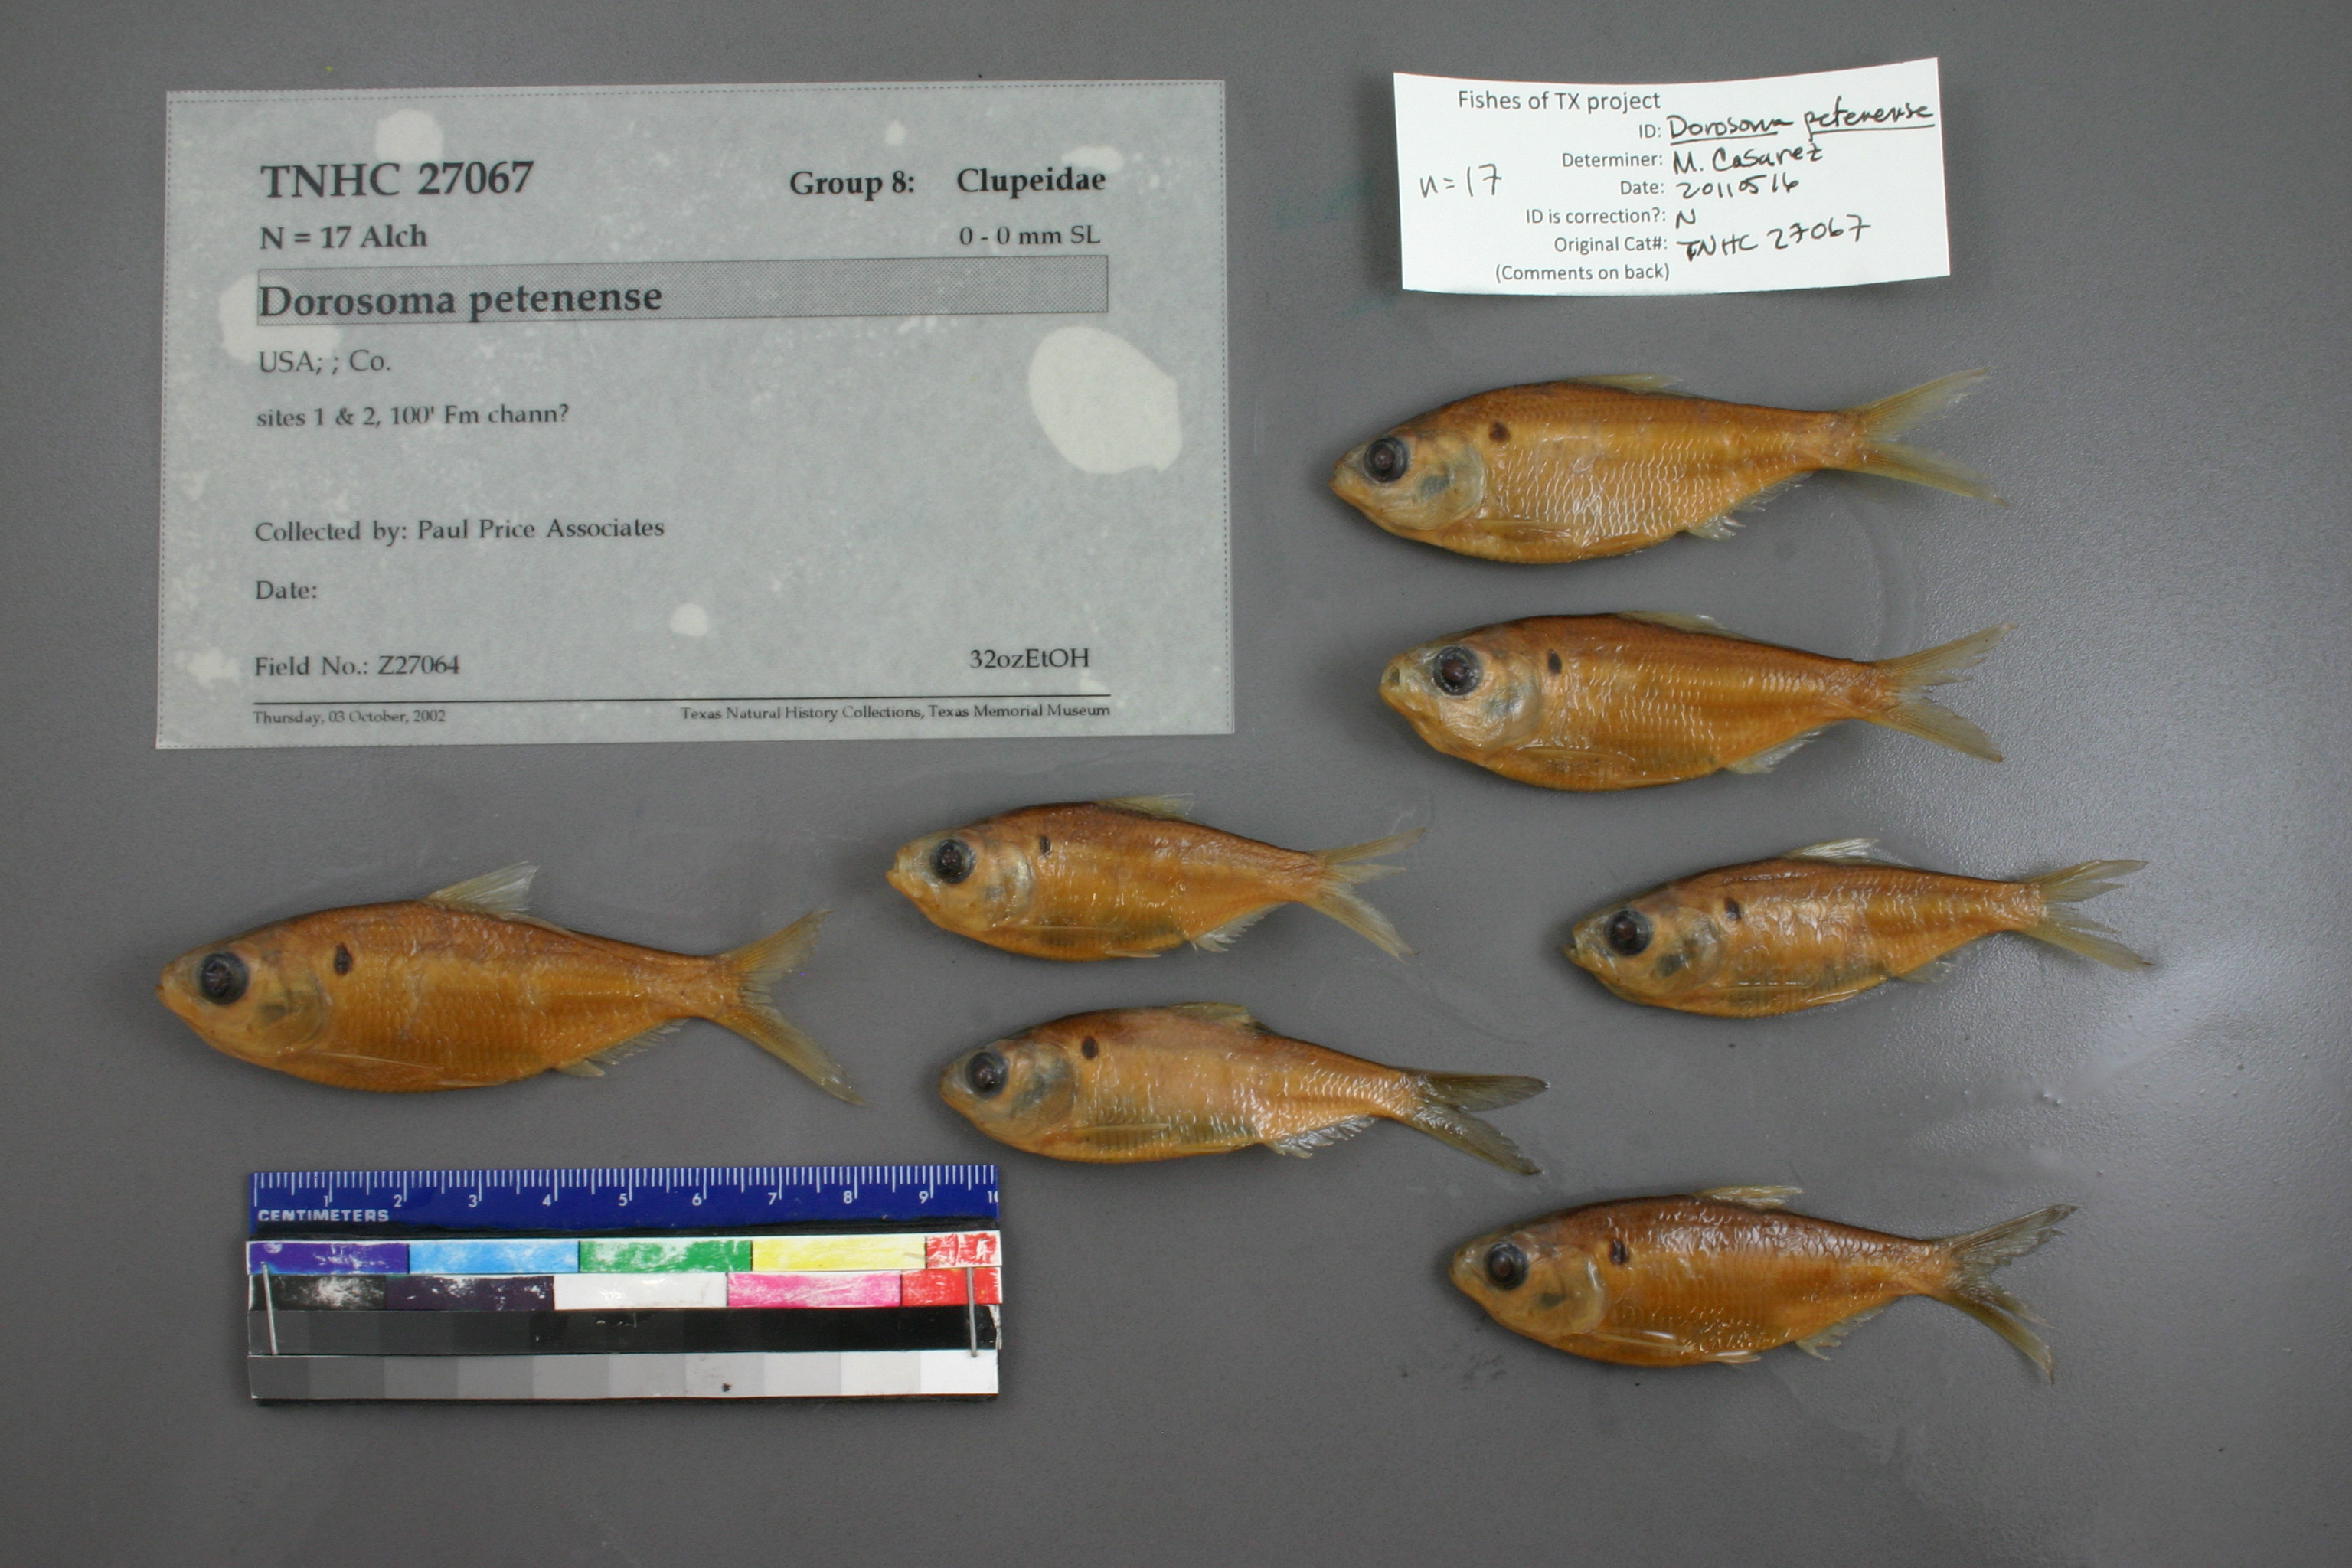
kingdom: Animalia
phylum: Chordata
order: Clupeiformes
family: Clupeidae
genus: Dorosoma
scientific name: Dorosoma petenense
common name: Threadfin shad
